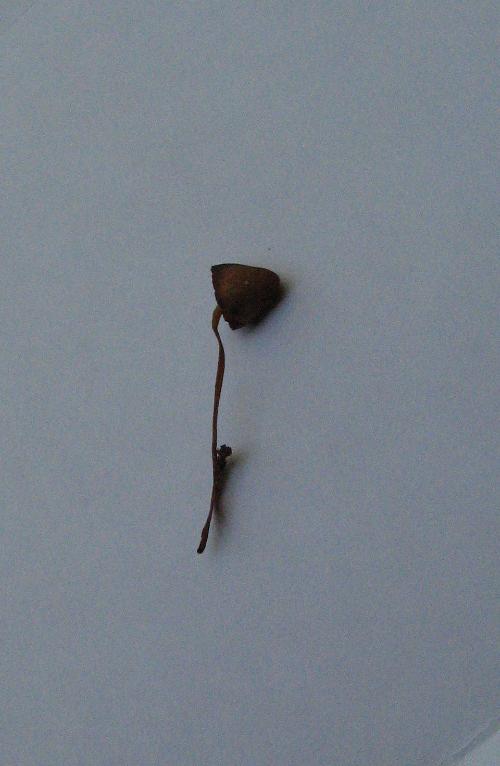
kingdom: Fungi
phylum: Basidiomycota
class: Agaricomycetes
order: Agaricales
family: Bolbitiaceae
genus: Conocybe
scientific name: Conocybe
